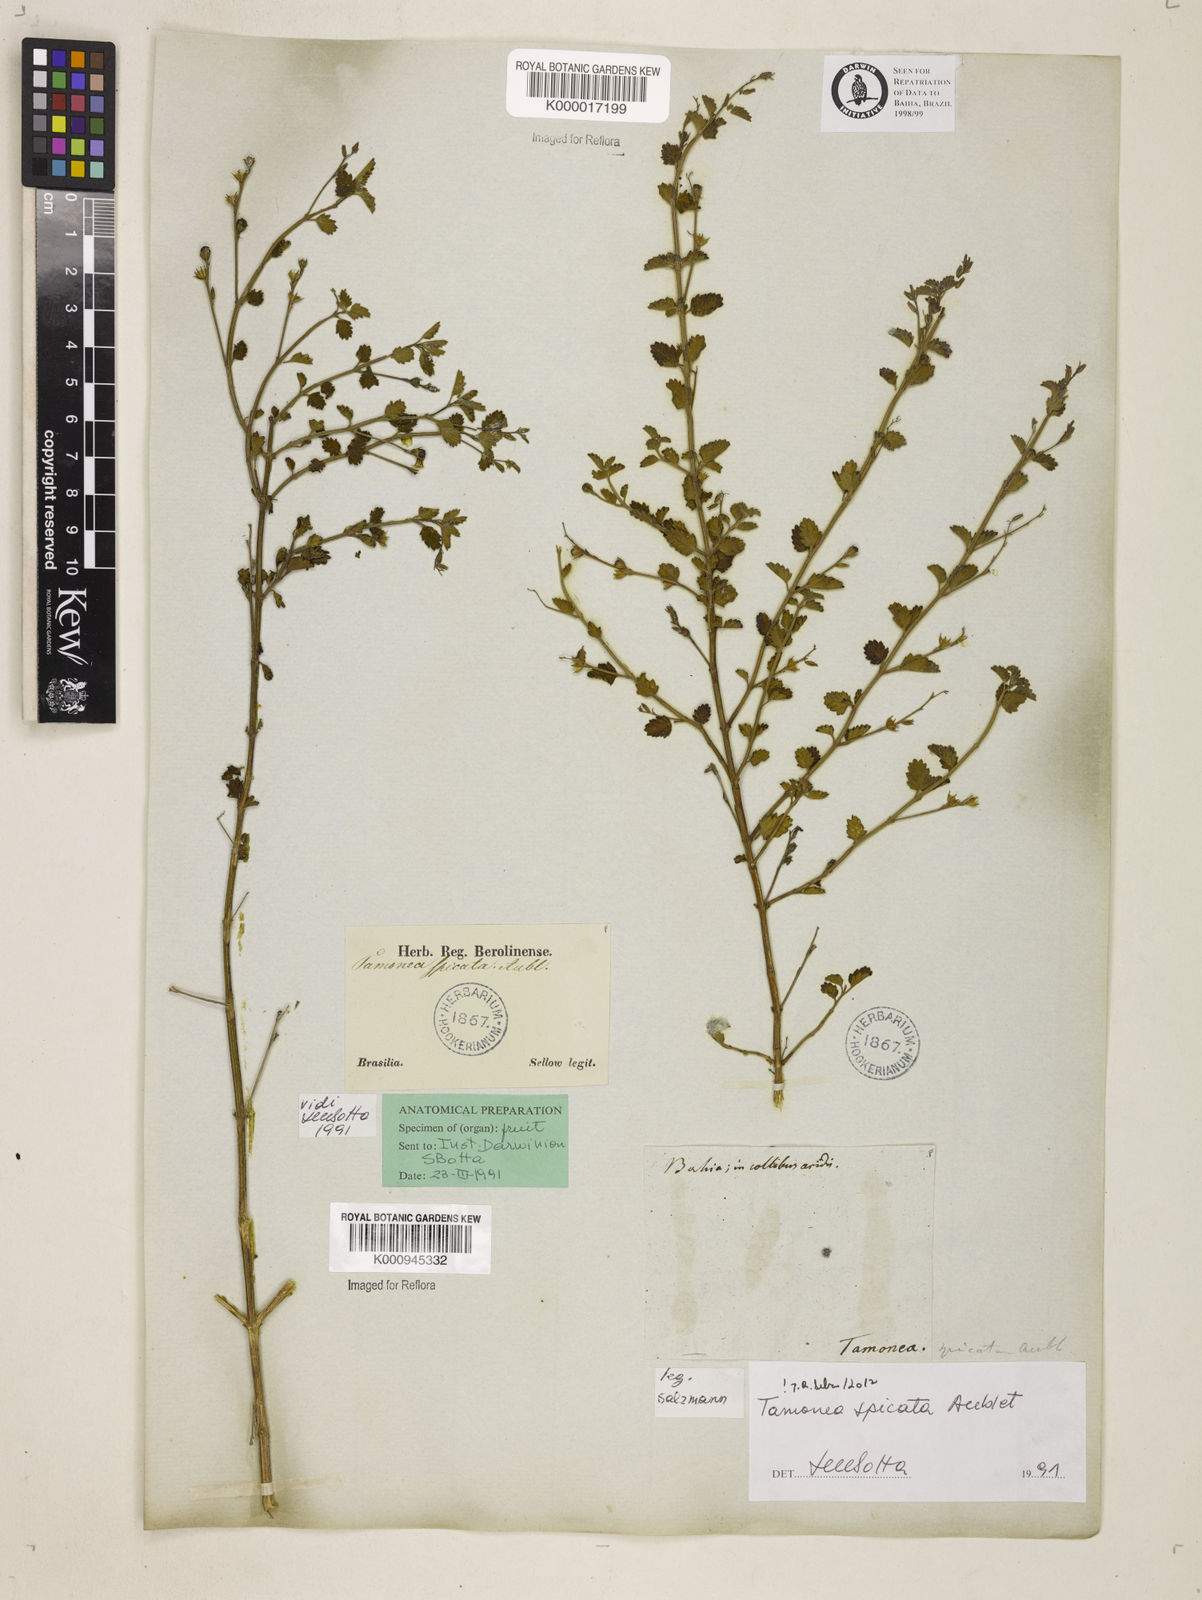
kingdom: Plantae
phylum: Tracheophyta
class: Magnoliopsida
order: Lamiales
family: Verbenaceae
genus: Tamonea
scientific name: Tamonea spicata
